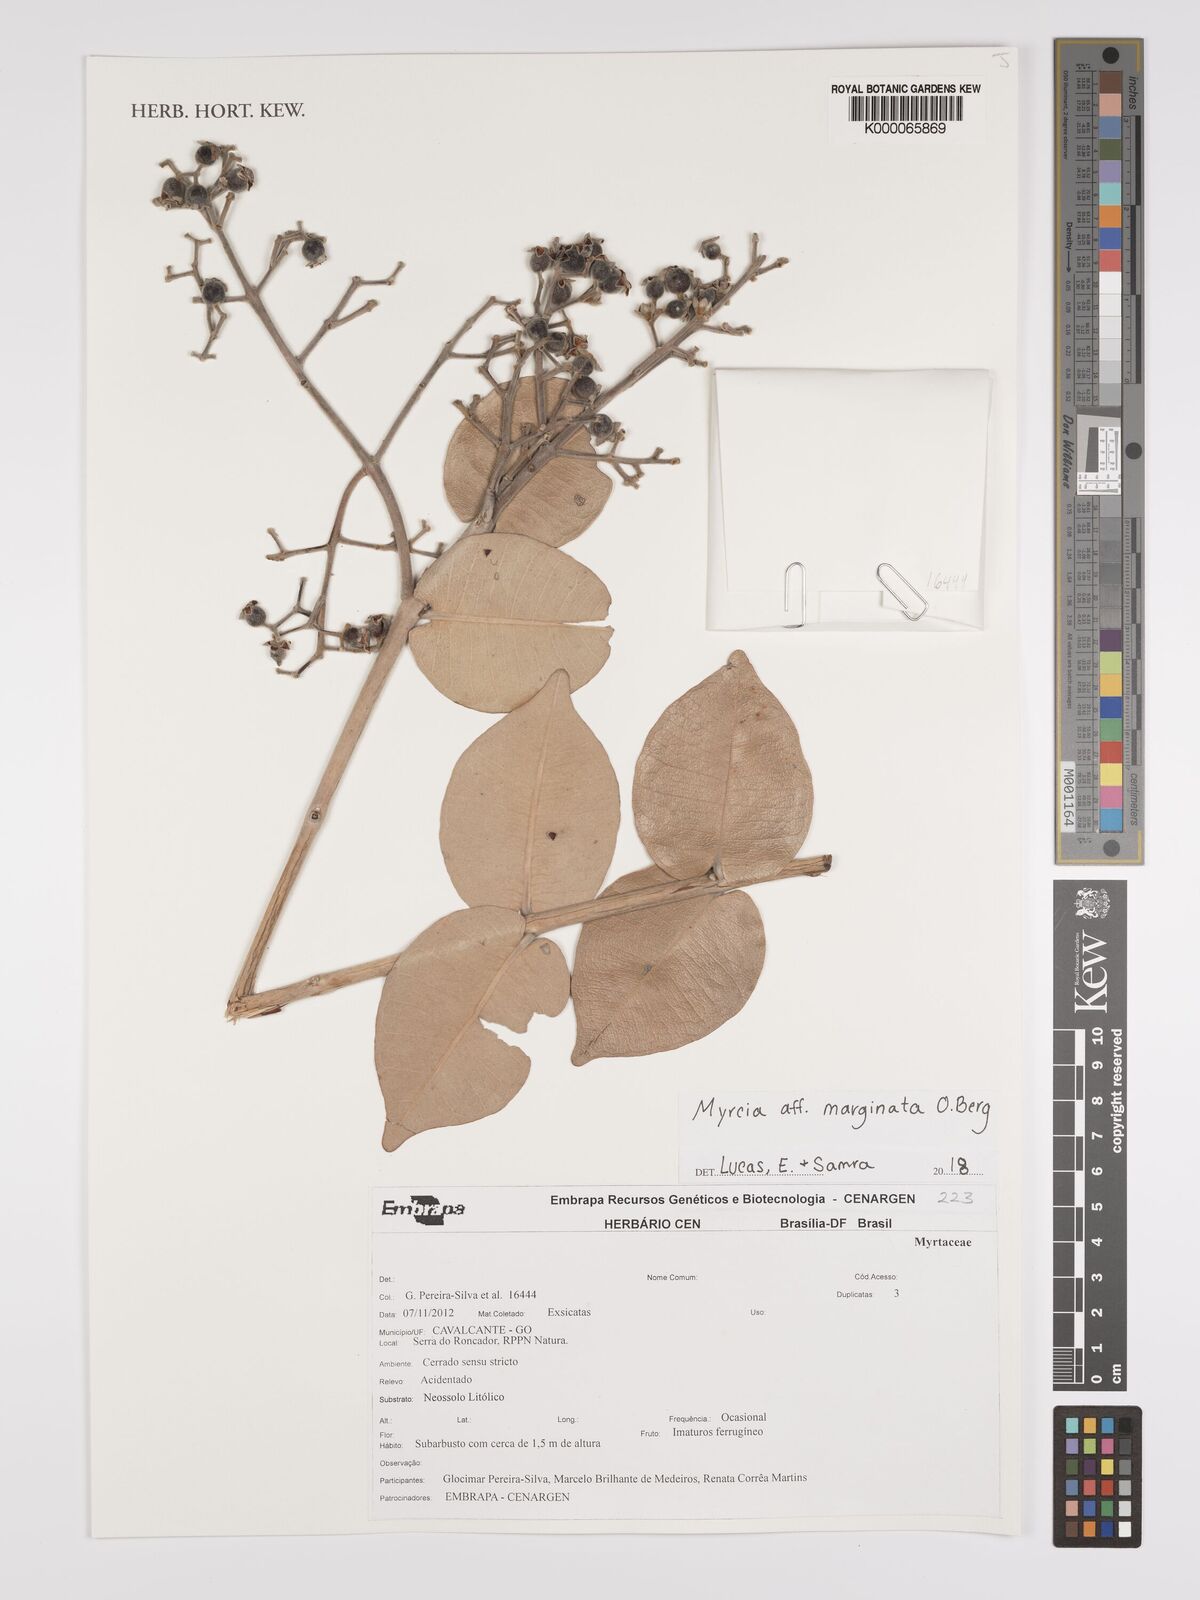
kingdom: Plantae
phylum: Tracheophyta
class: Magnoliopsida
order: Myrtales
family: Myrtaceae
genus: Myrcia
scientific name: Myrcia marginata
